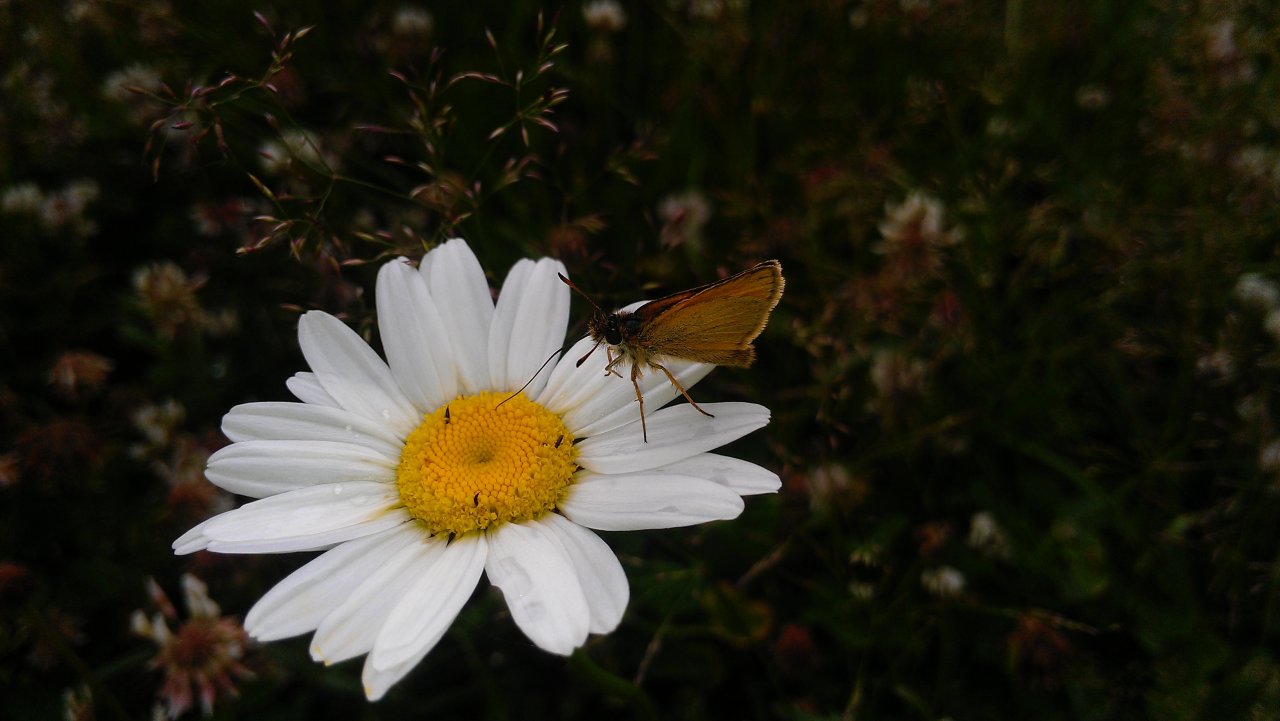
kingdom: Animalia
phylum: Arthropoda
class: Insecta
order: Lepidoptera
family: Hesperiidae
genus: Thymelicus
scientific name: Thymelicus lineola
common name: European Skipper
